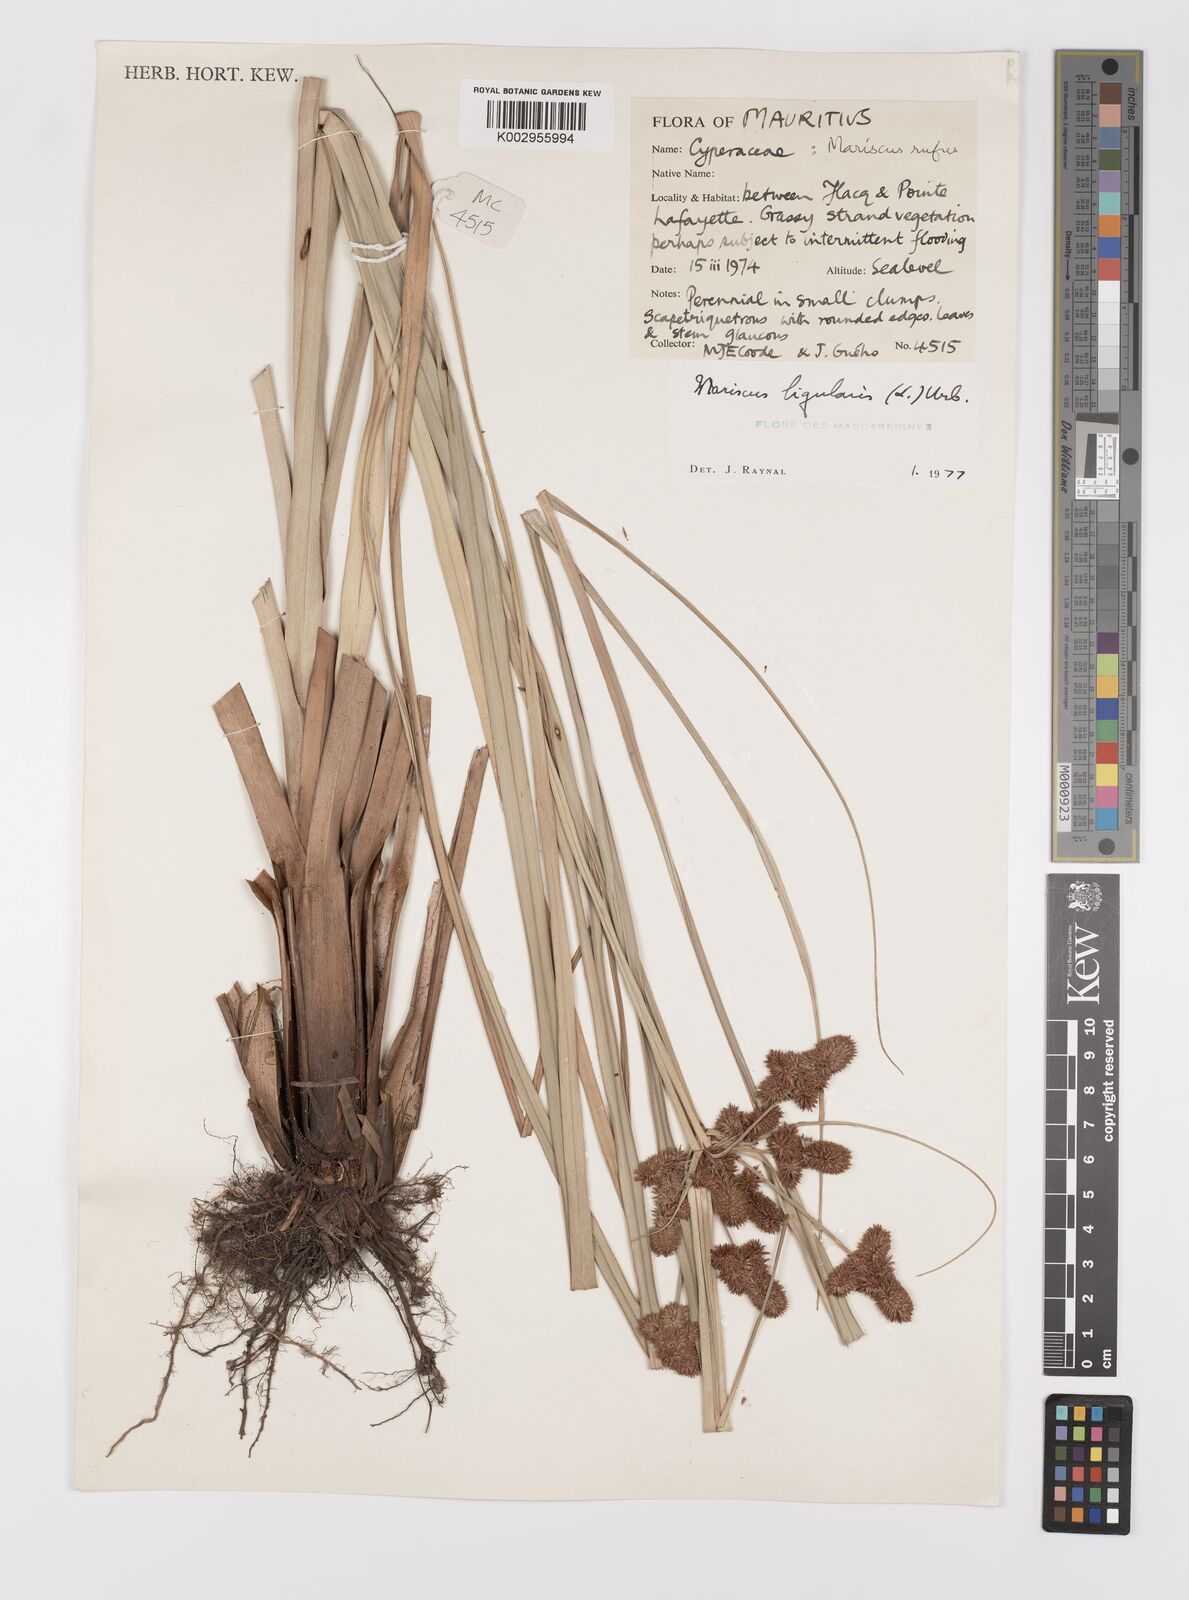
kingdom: Plantae
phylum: Tracheophyta
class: Liliopsida
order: Poales
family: Cyperaceae
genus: Cyperus
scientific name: Cyperus ligularis
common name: Swamp flat sedge
